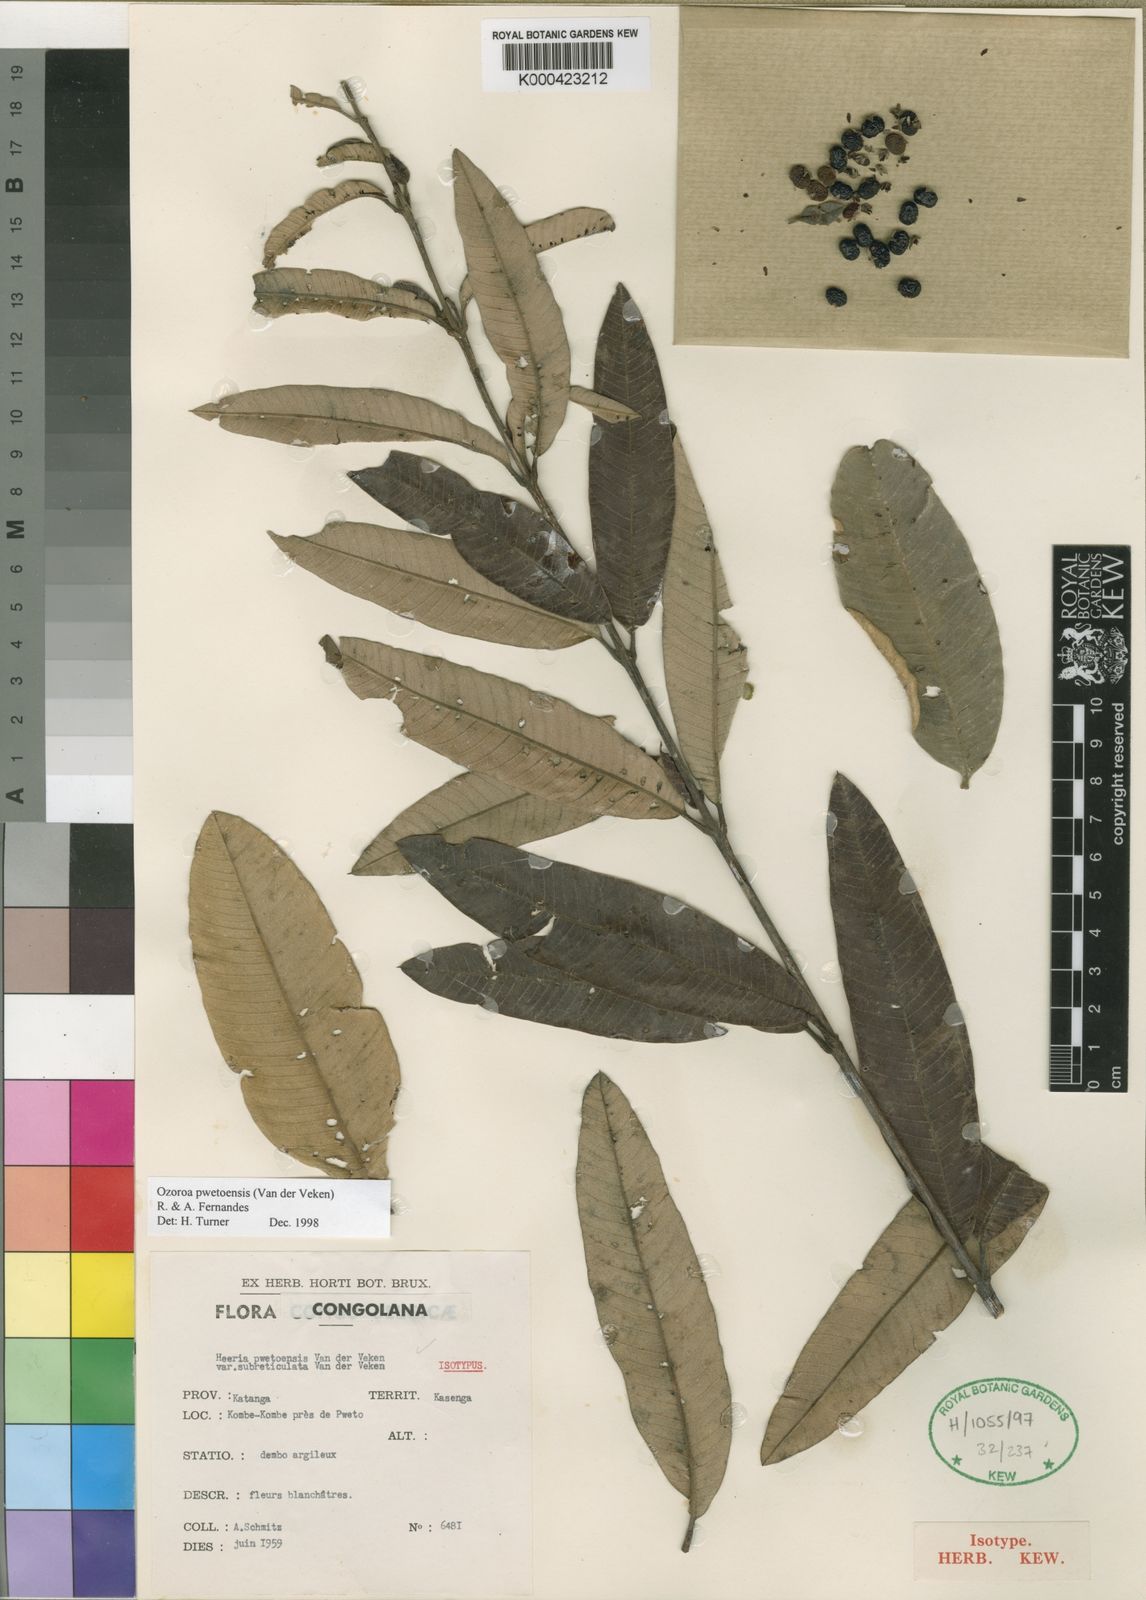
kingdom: Plantae
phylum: Tracheophyta
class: Magnoliopsida
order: Sapindales
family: Anacardiaceae
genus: Ozoroa
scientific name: Ozoroa pwetoensis
